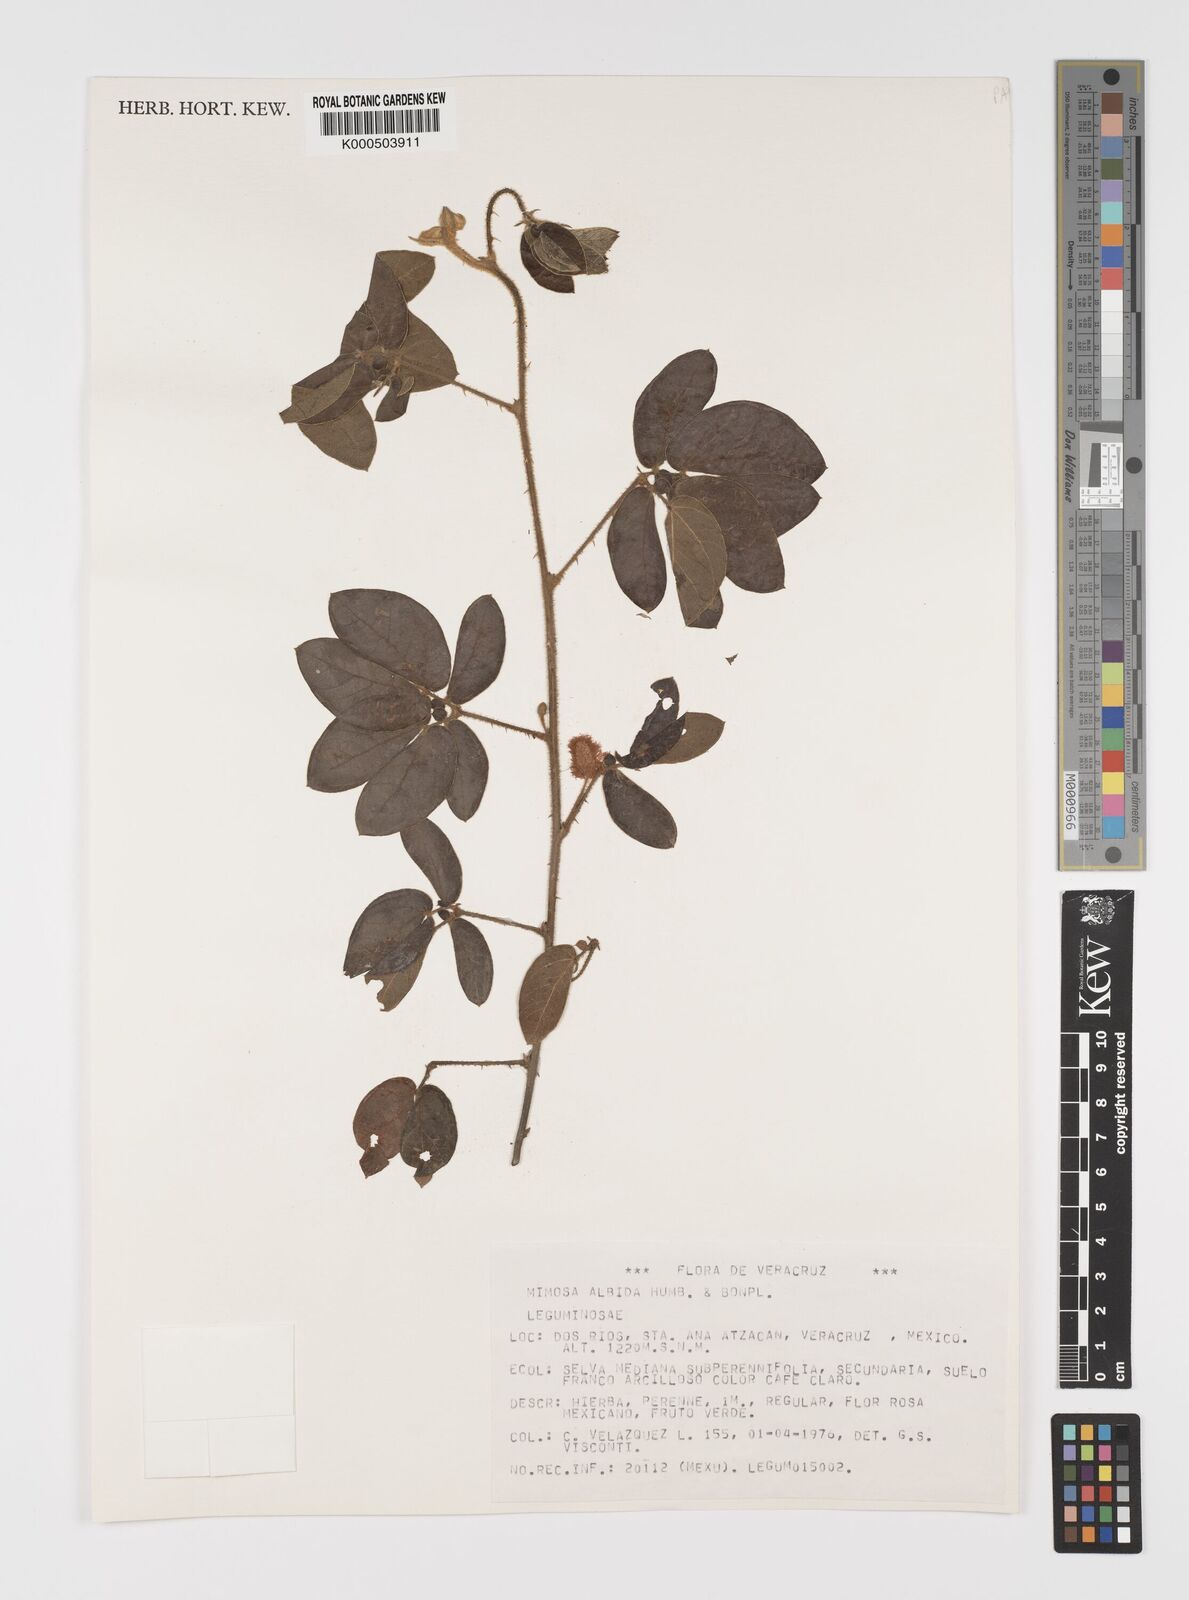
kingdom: Plantae
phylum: Tracheophyta
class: Magnoliopsida
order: Fabales
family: Fabaceae
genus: Mimosa
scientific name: Mimosa albida
